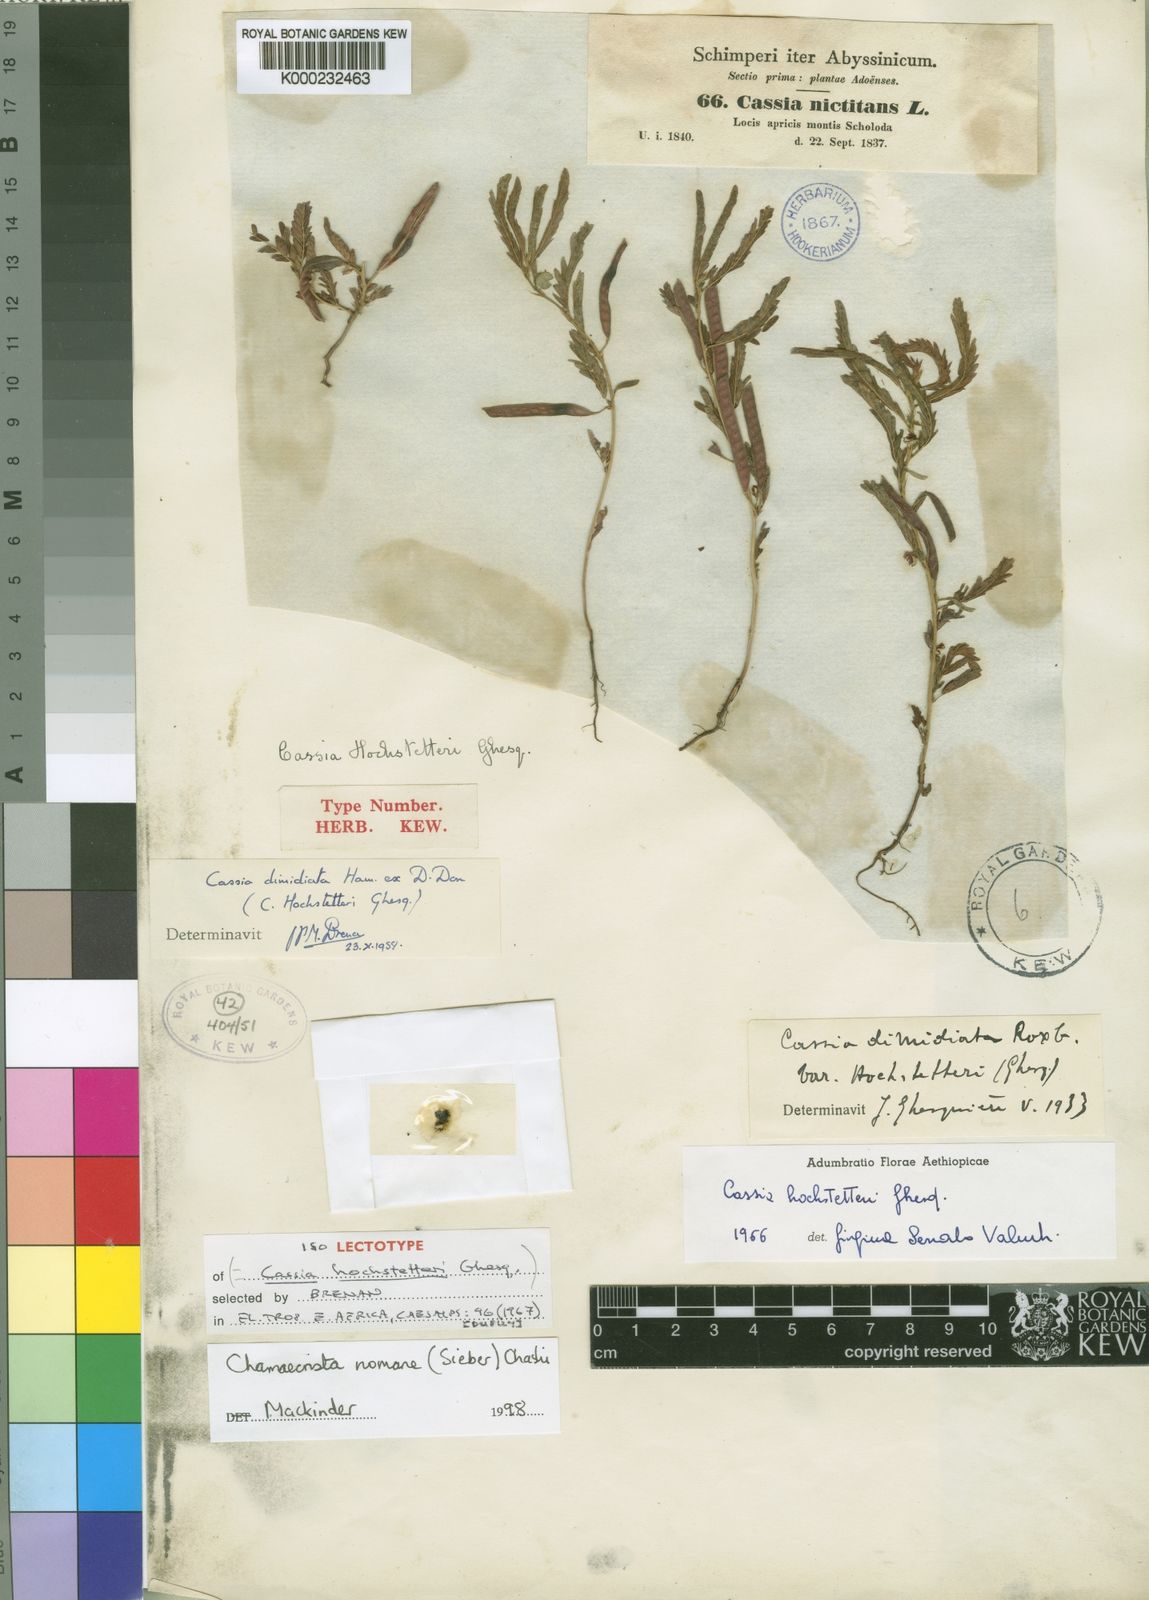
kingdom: Plantae
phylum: Tracheophyta
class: Magnoliopsida
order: Fabales
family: Fabaceae
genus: Chamaecrista
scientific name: Chamaecrista
